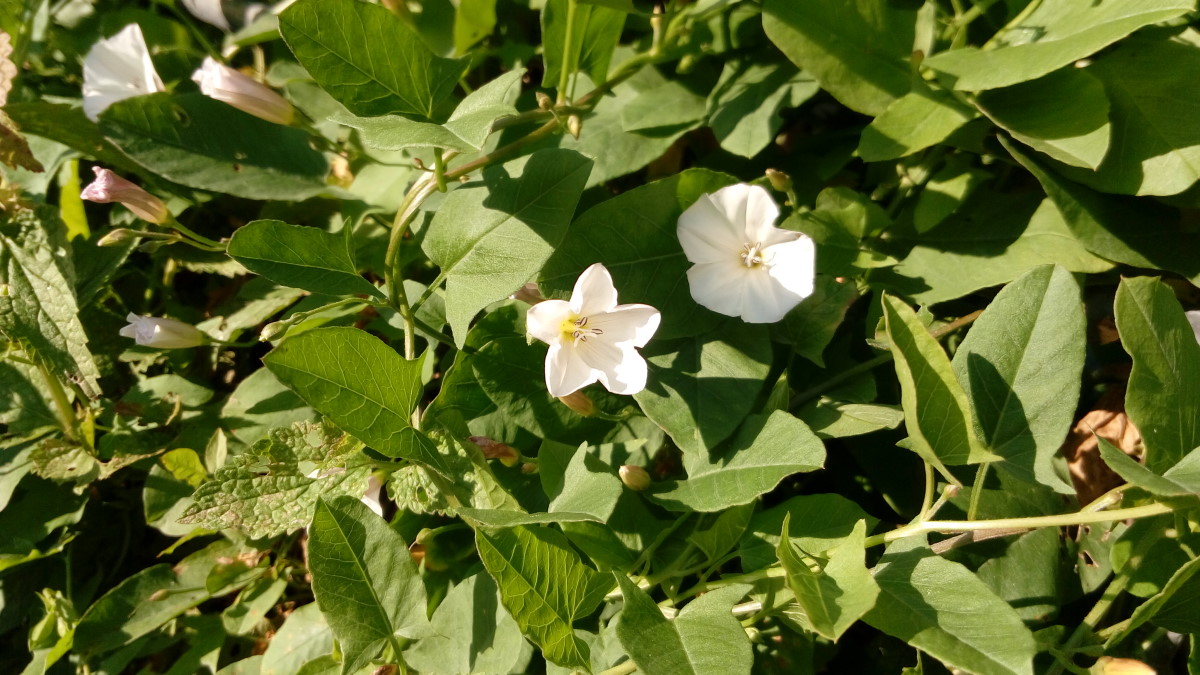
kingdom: Plantae
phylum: Tracheophyta
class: Magnoliopsida
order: Solanales
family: Convolvulaceae
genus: Convolvulus
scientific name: Convolvulus arvensis
